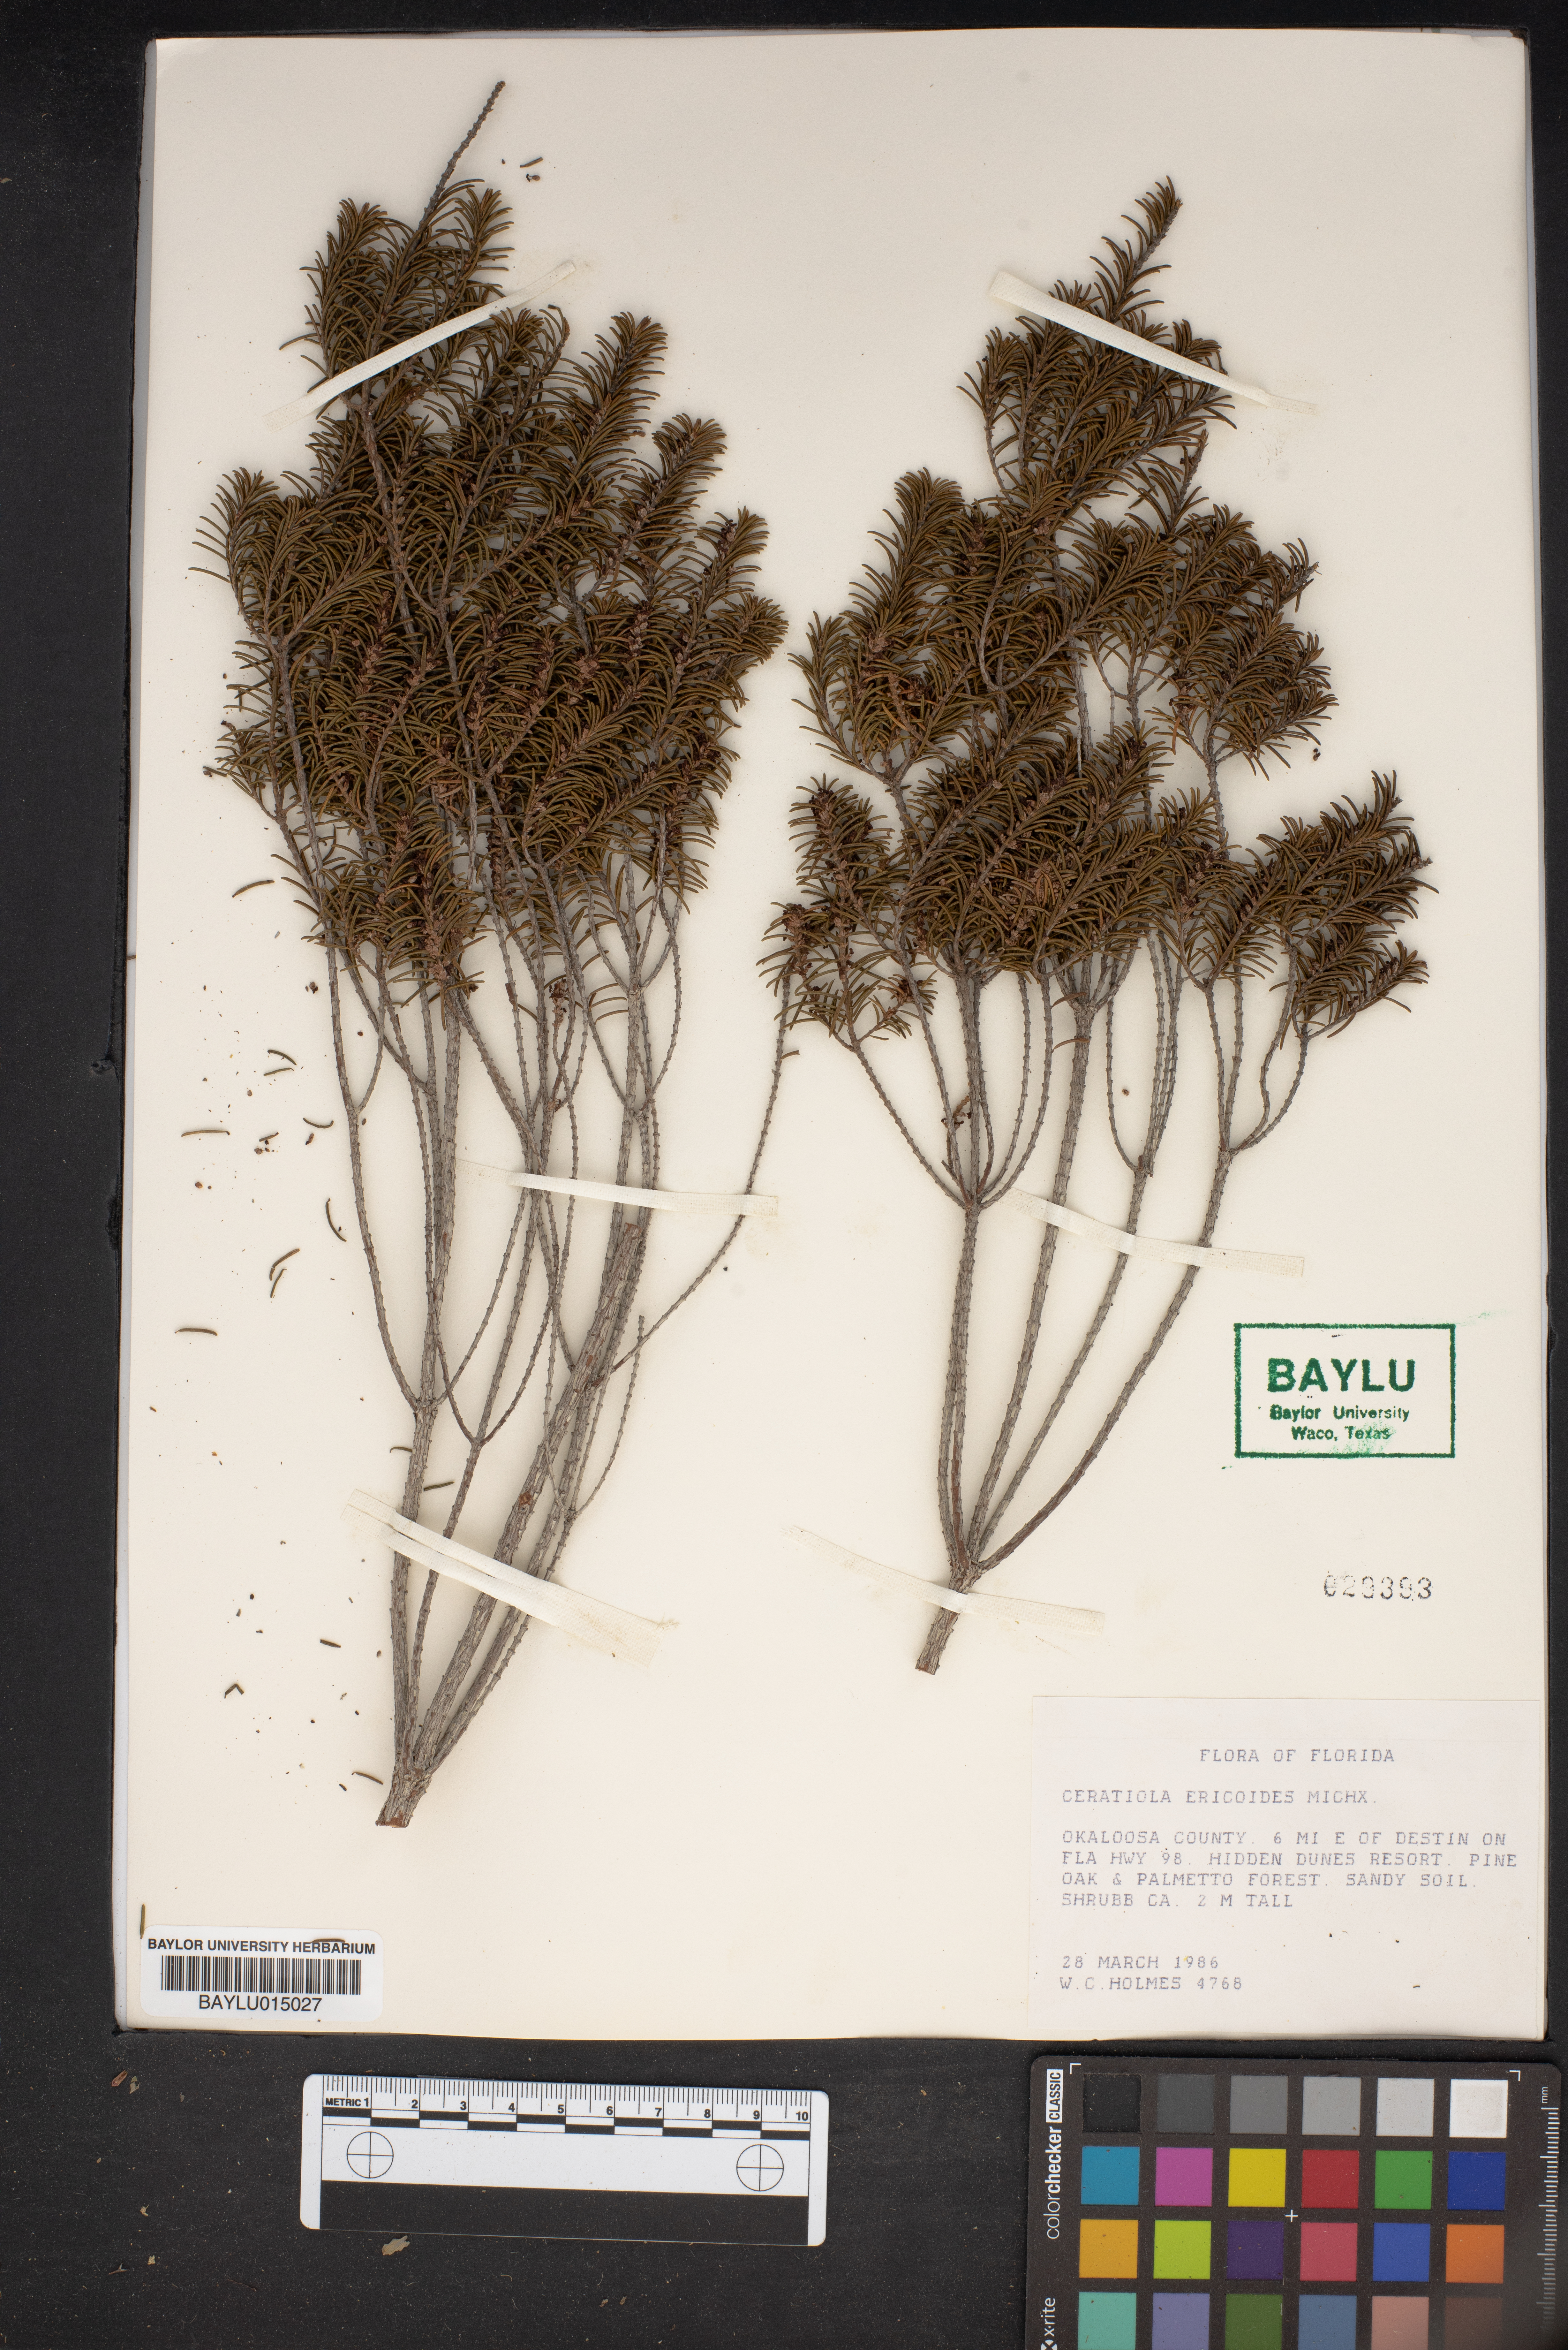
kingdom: Plantae
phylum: Tracheophyta
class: Magnoliopsida
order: Ericales
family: Ericaceae
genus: Ceratiola
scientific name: Ceratiola ericoides
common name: Sandhill-rosemary
